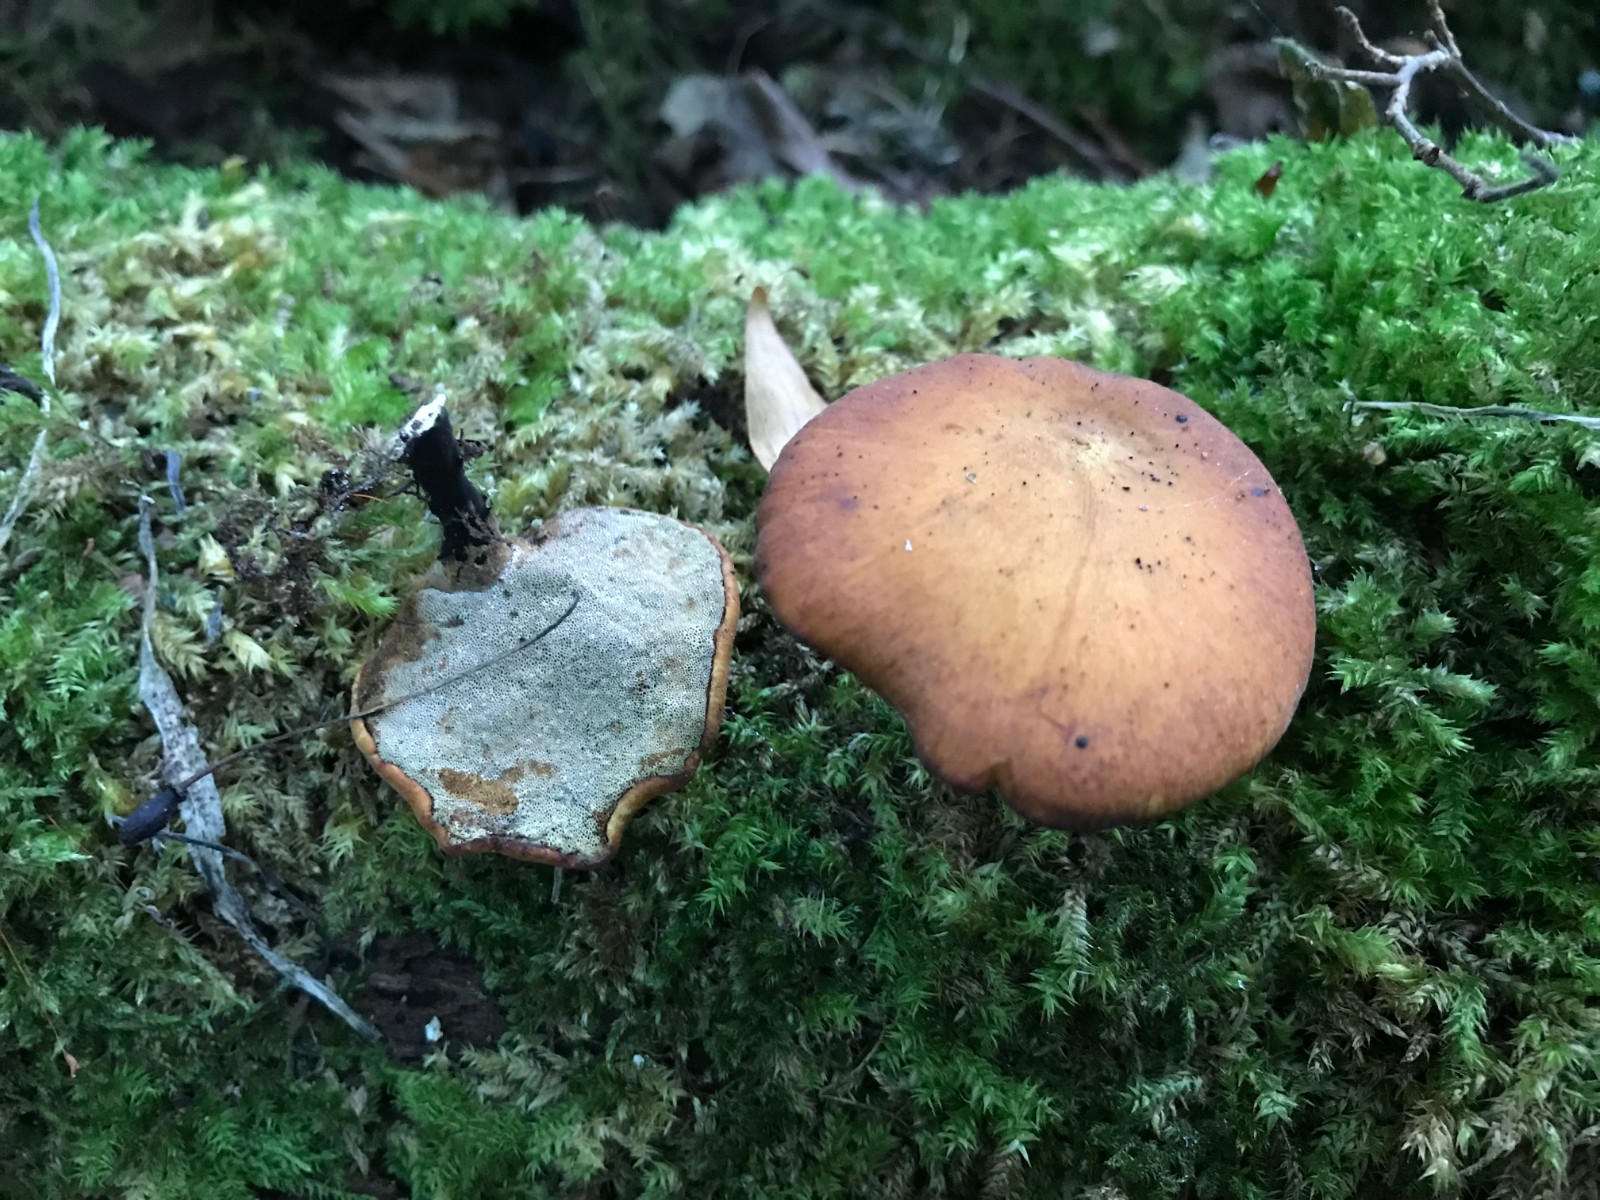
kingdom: Fungi
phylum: Basidiomycota
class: Agaricomycetes
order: Polyporales
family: Polyporaceae
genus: Cerioporus
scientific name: Cerioporus varius
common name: foranderlig stilkporesvamp
